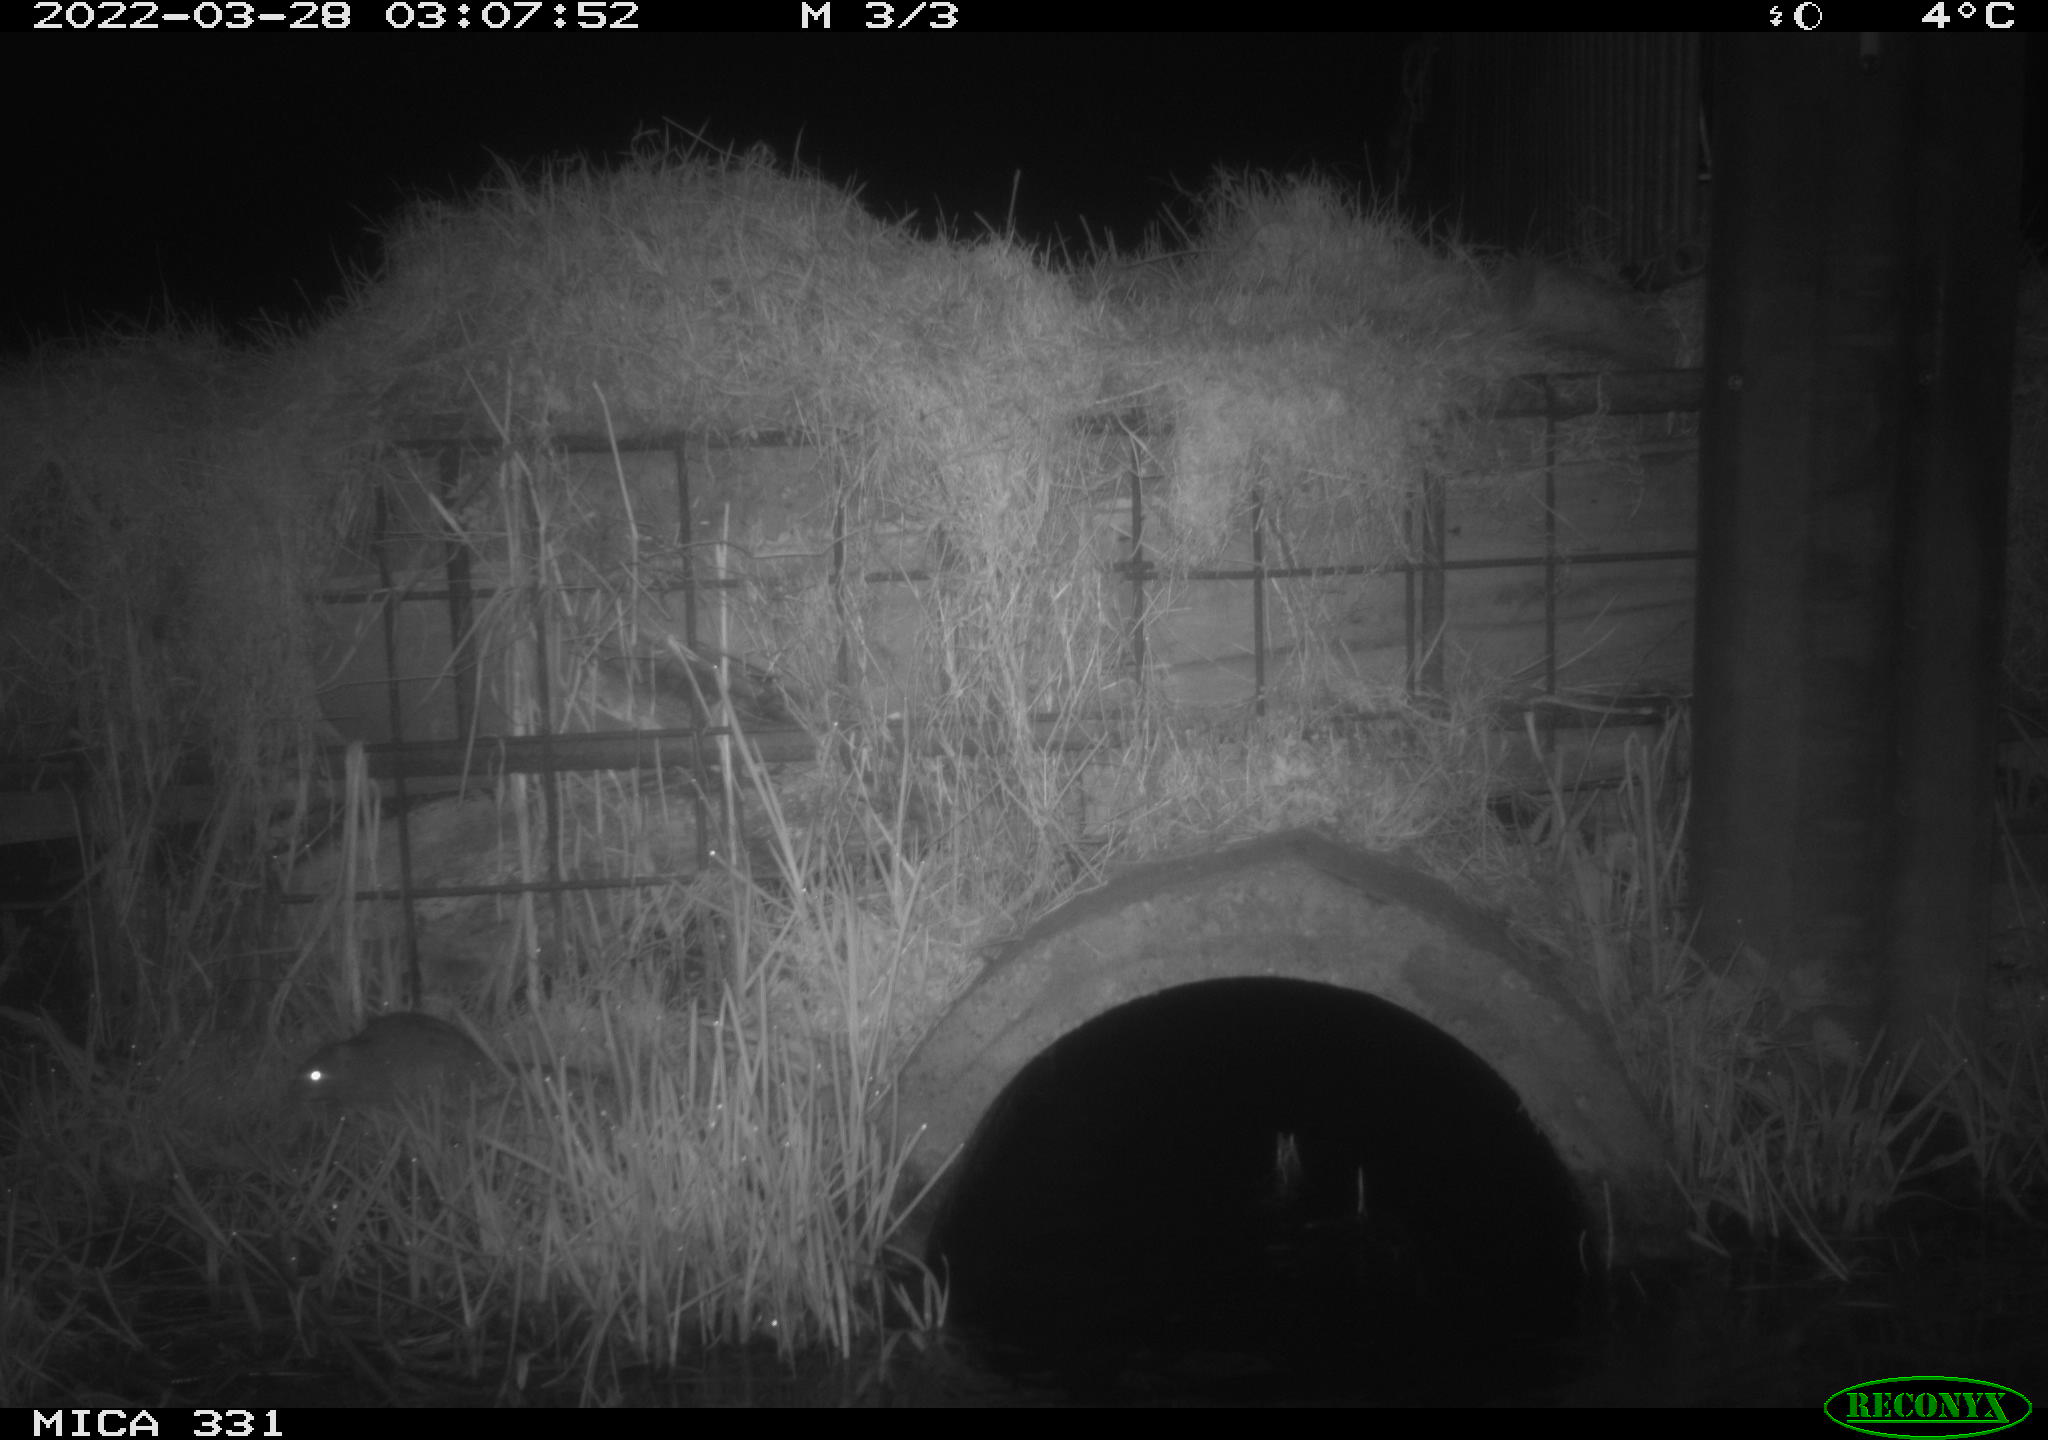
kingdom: Animalia
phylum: Chordata
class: Mammalia
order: Rodentia
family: Muridae
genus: Rattus
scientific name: Rattus norvegicus
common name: Brown rat
